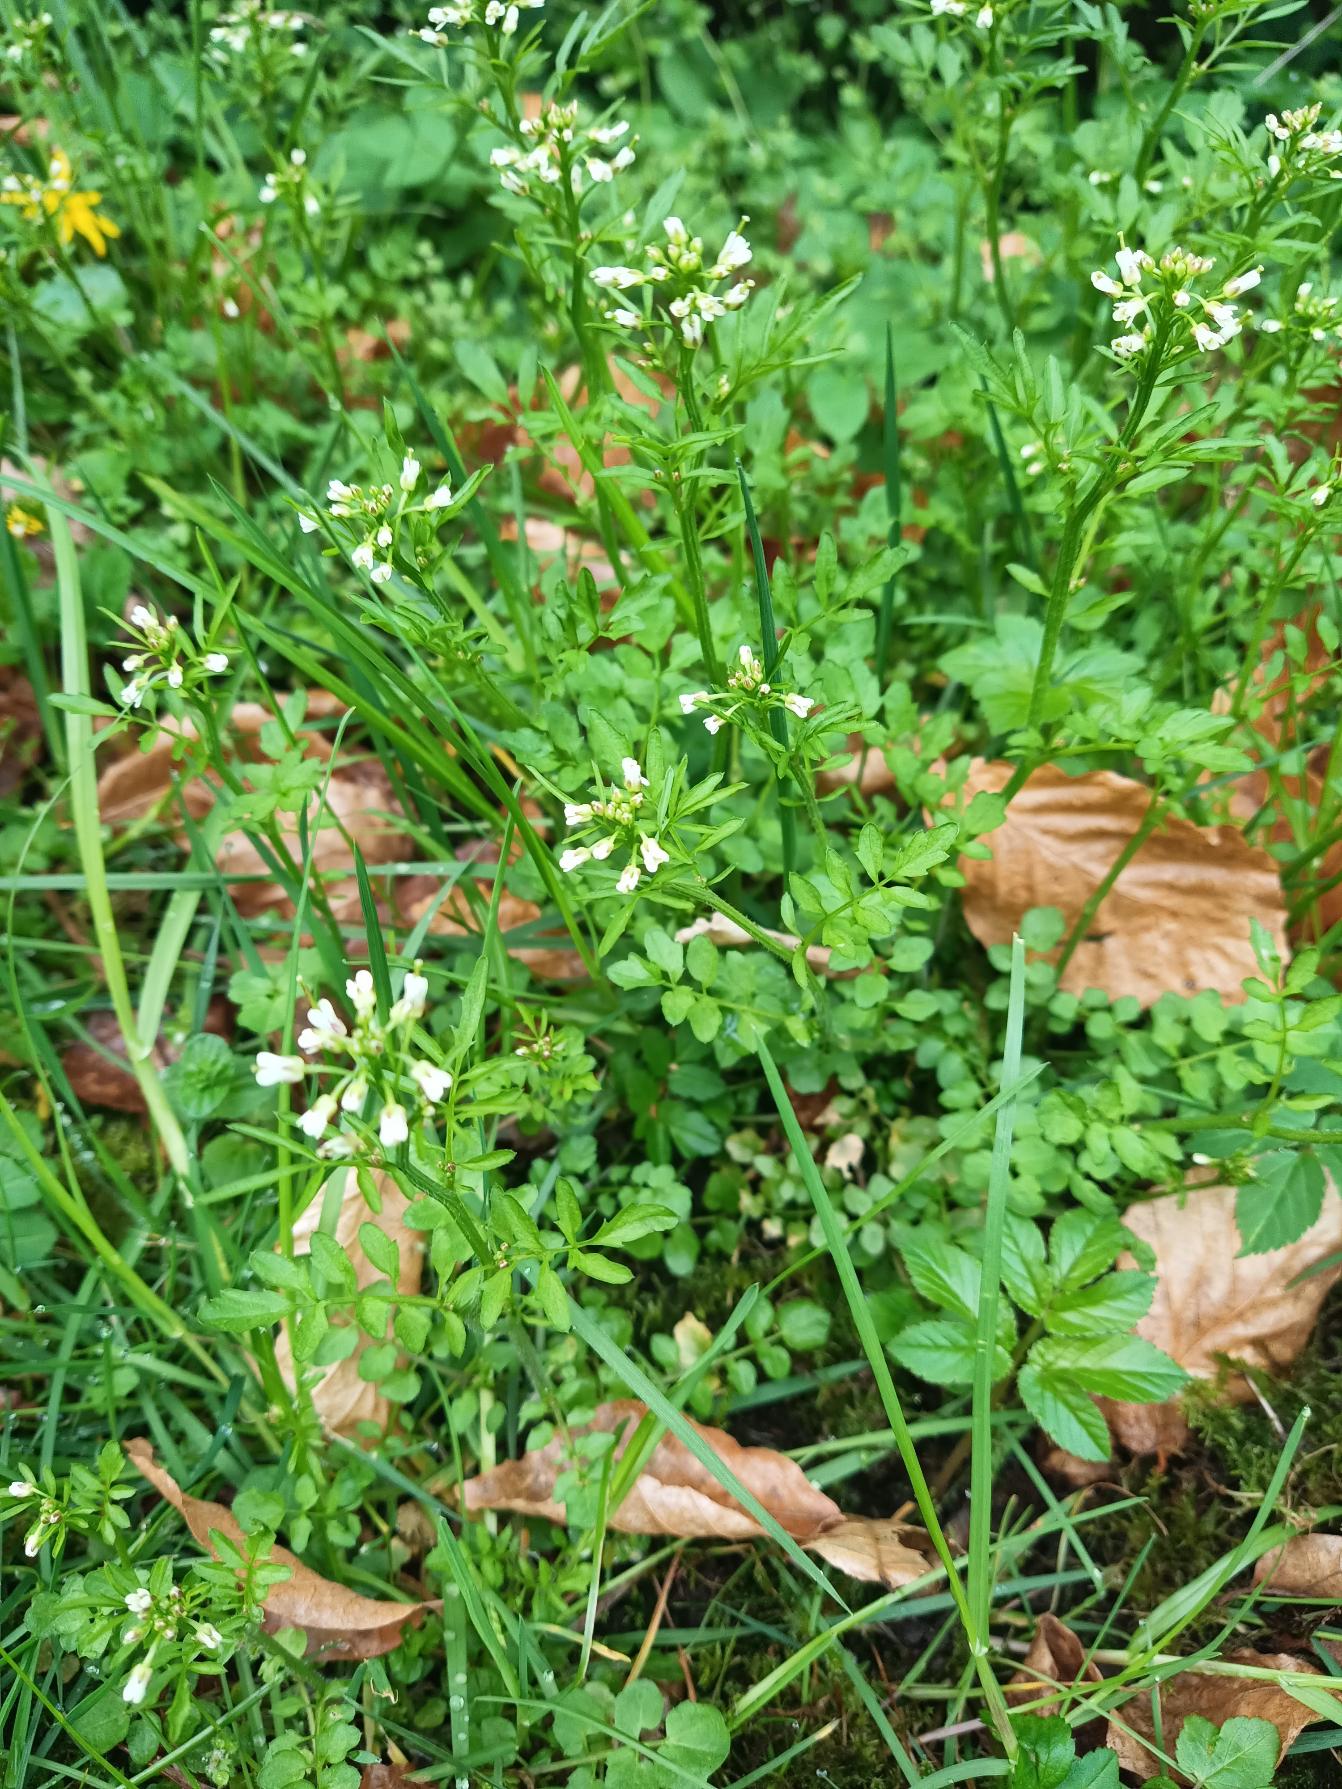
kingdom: Plantae
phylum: Tracheophyta
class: Magnoliopsida
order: Brassicales
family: Brassicaceae
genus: Cardamine
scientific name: Cardamine flexuosa
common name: Skov-springklap
